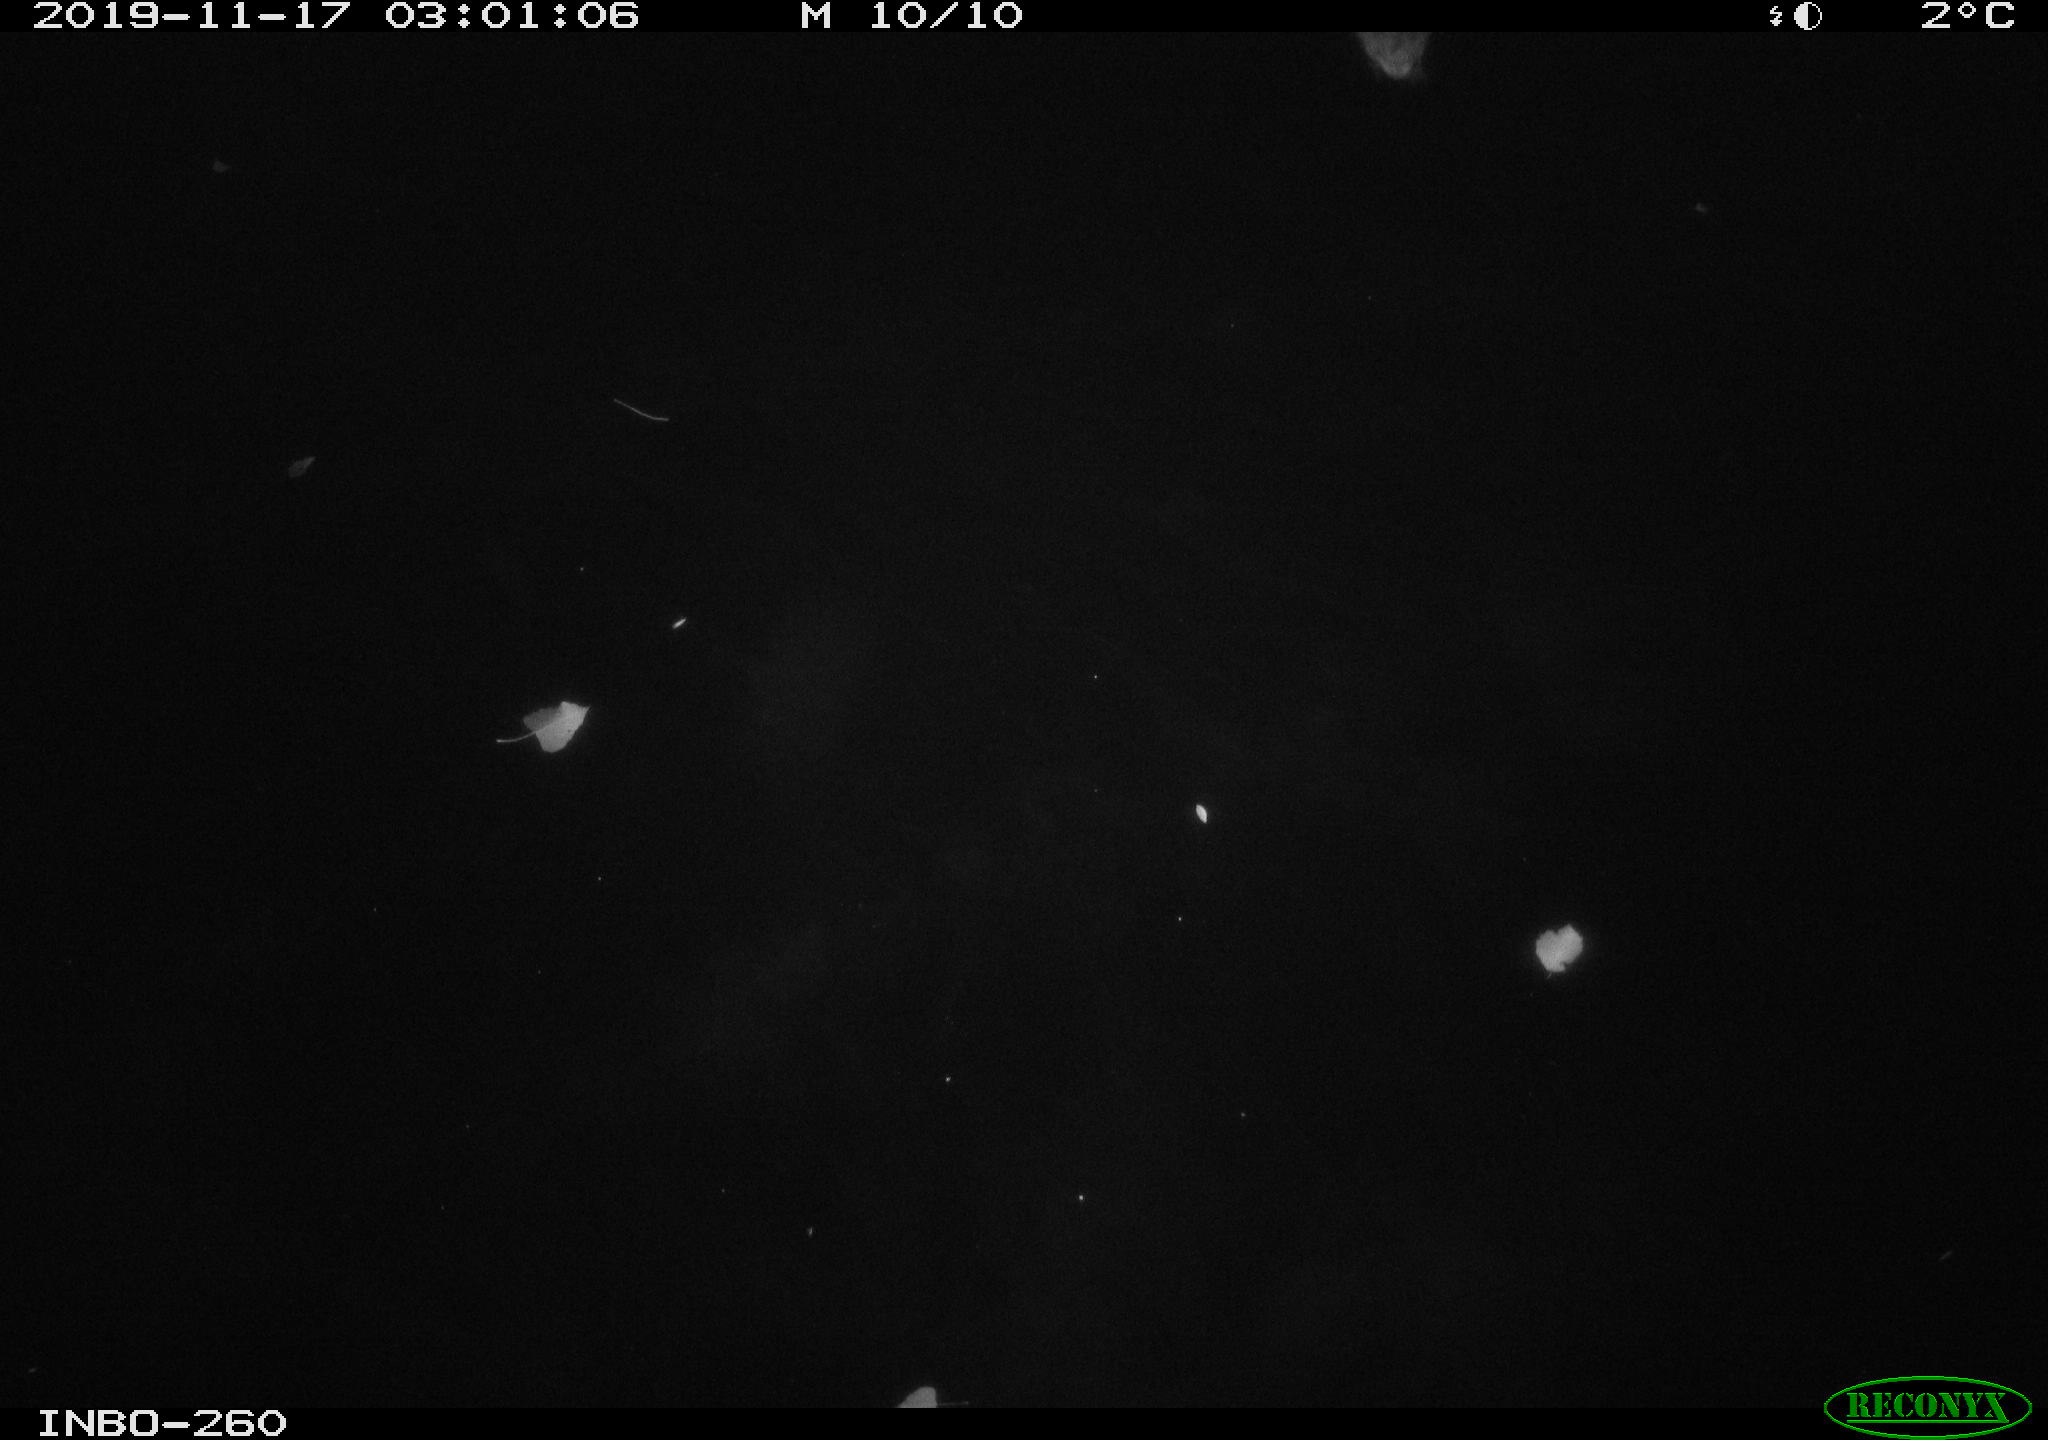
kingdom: Animalia
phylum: Chordata
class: Aves
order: Anseriformes
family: Anatidae
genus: Anas
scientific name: Anas platyrhynchos
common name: Mallard
